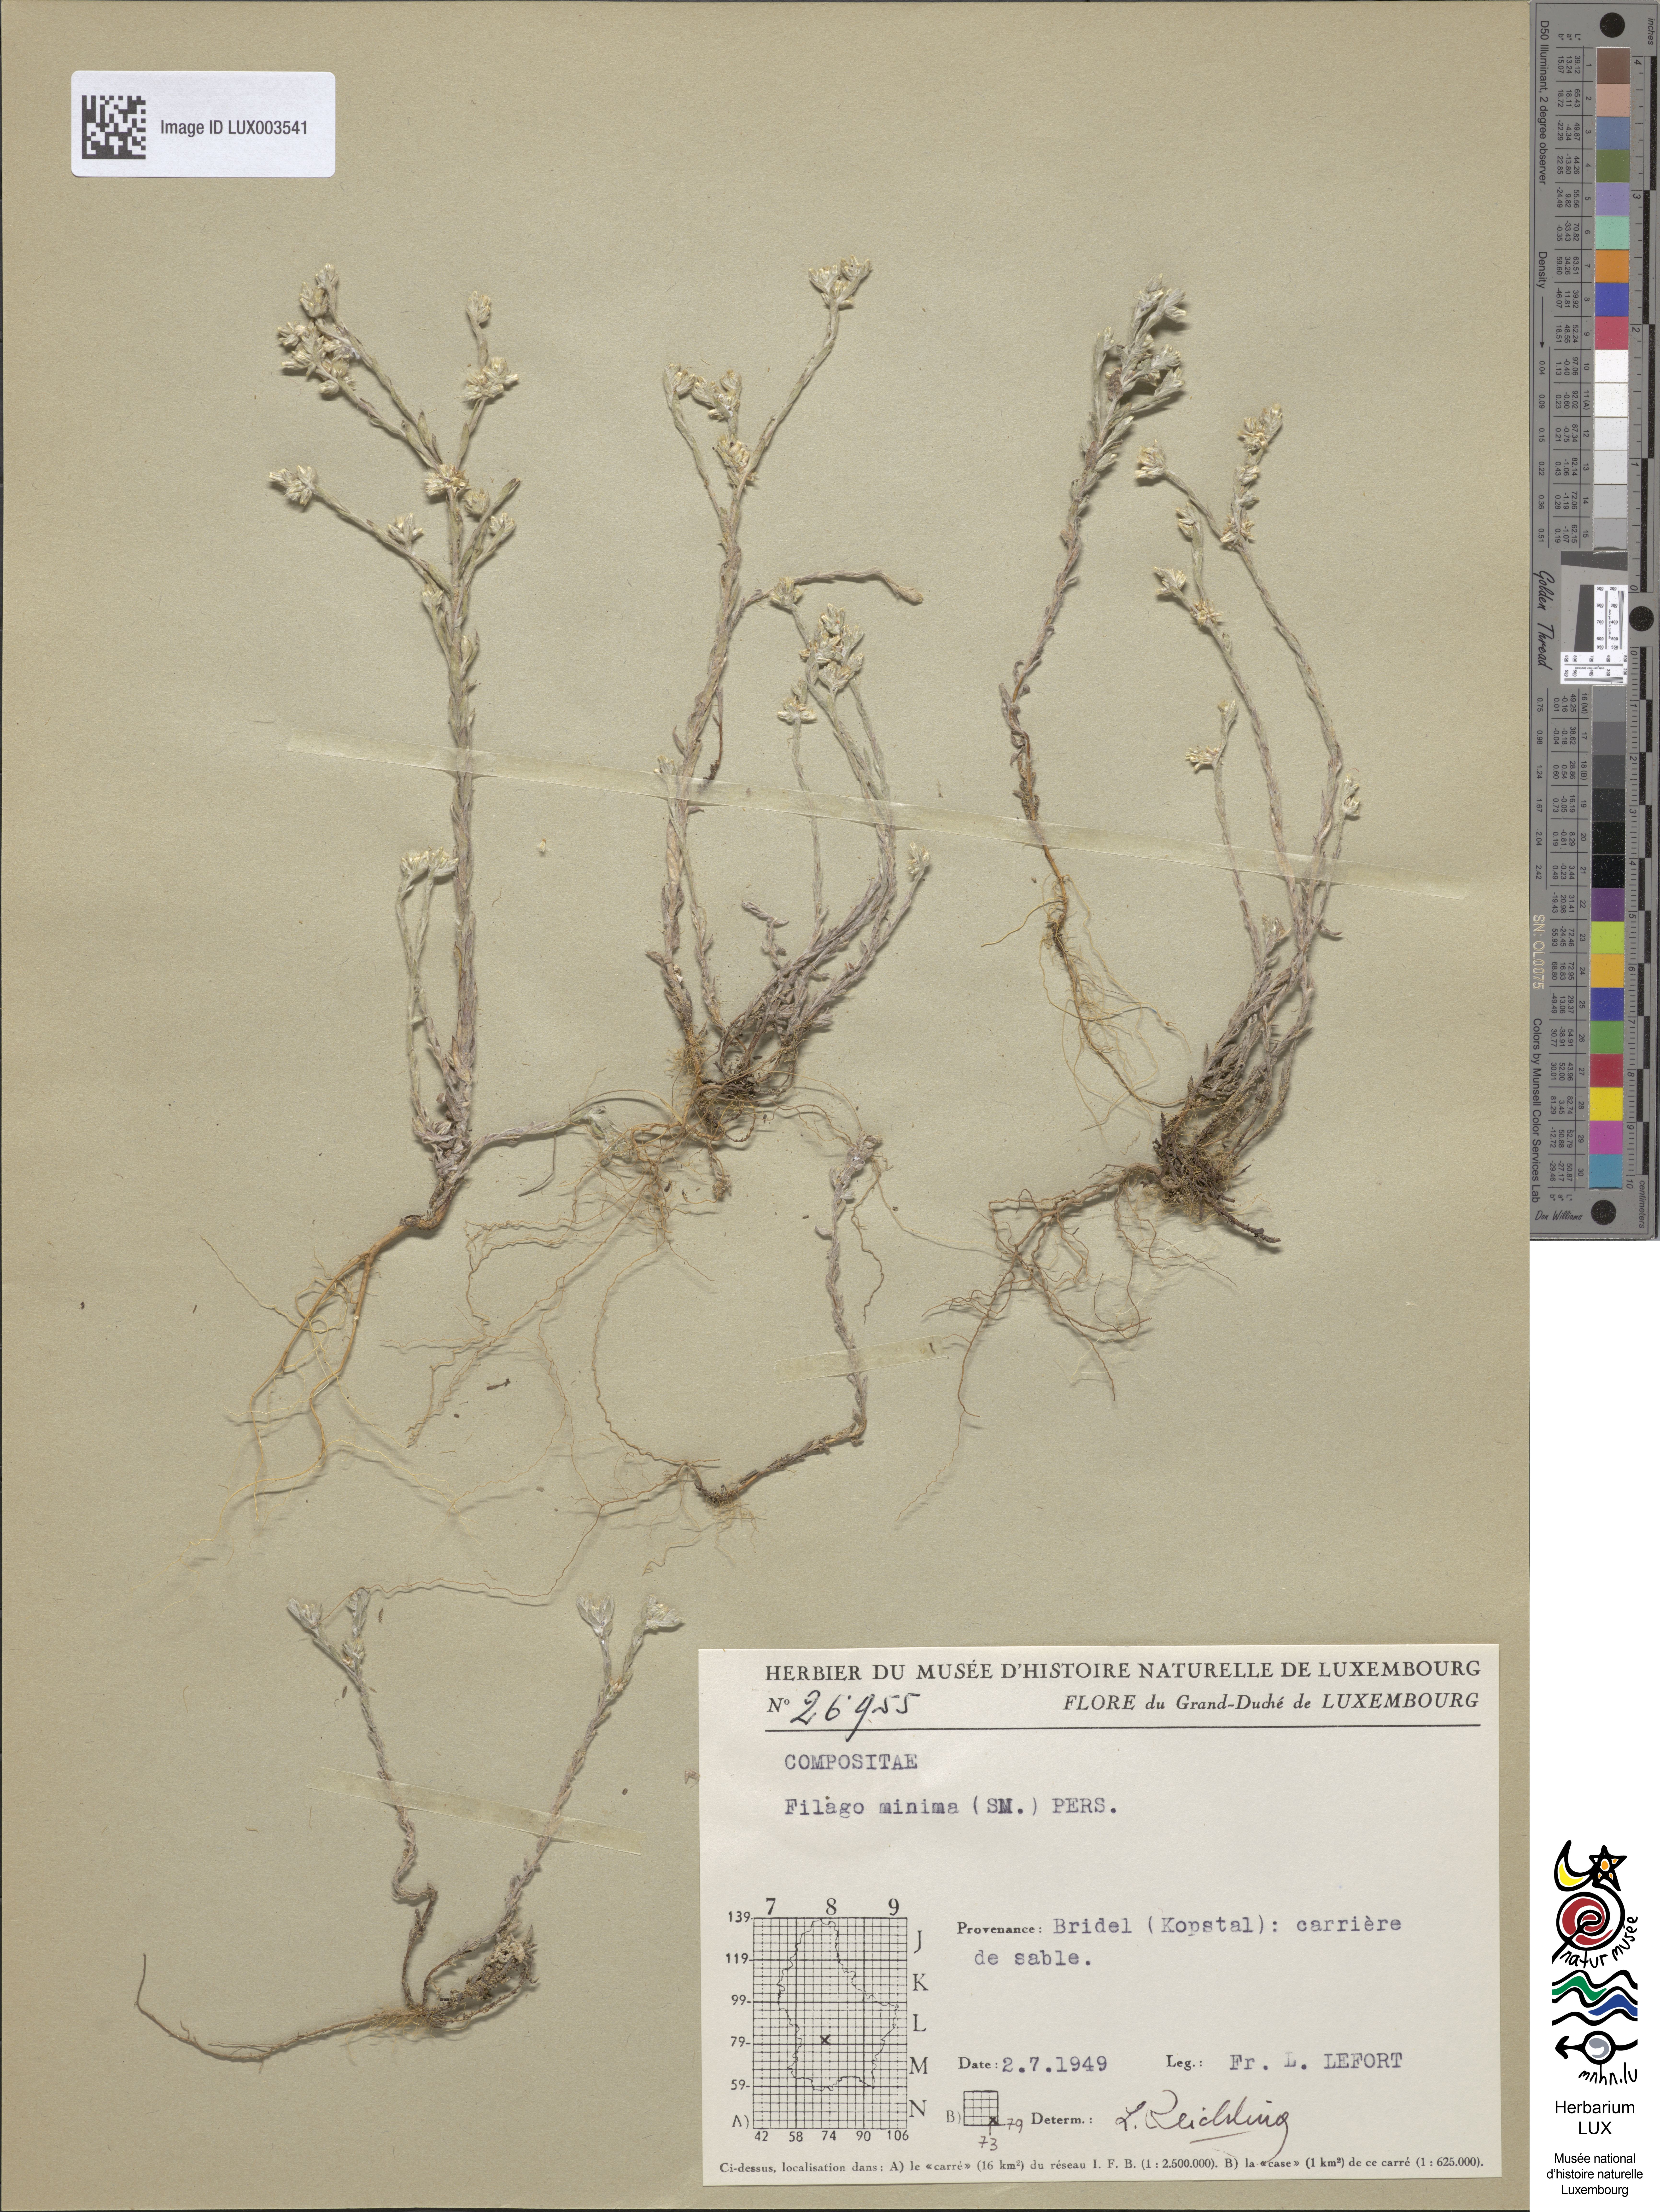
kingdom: Plantae
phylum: Tracheophyta
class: Magnoliopsida
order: Asterales
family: Asteraceae
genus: Logfia
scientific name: Logfia minima
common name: Little cottonrose
